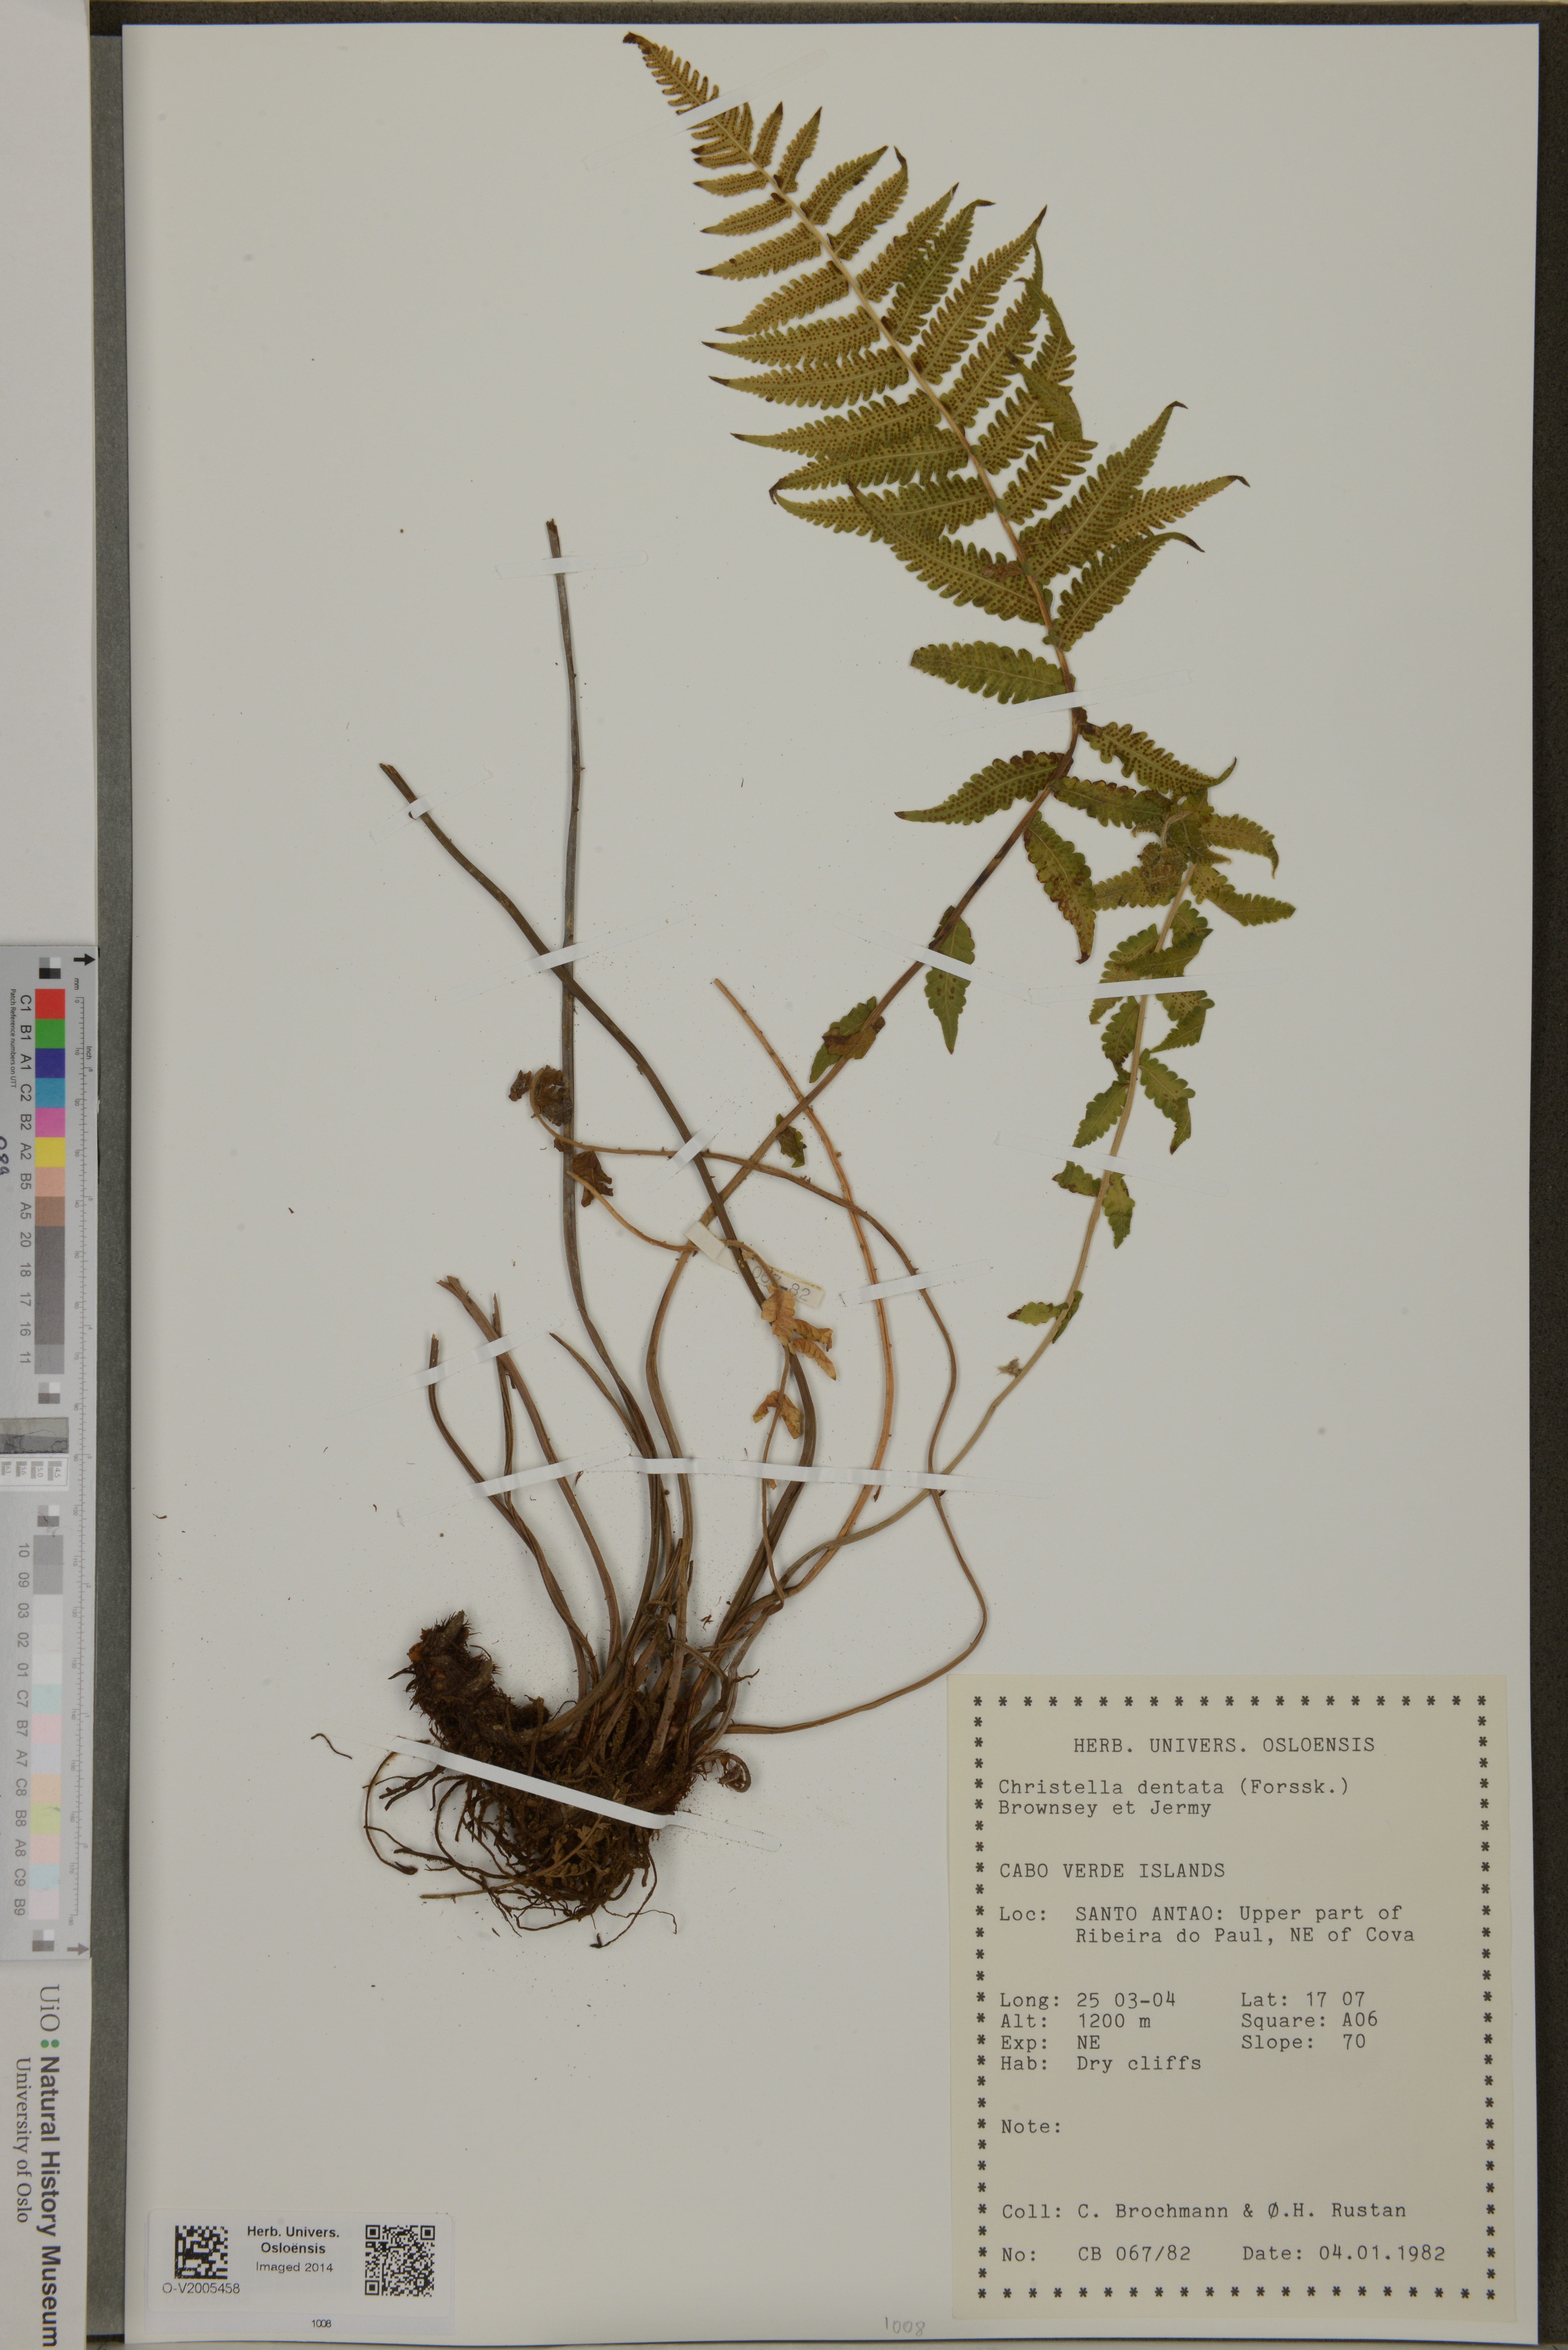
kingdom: Plantae
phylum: Tracheophyta
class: Polypodiopsida
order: Polypodiales
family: Thelypteridaceae
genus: Christella
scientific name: Christella dentata
